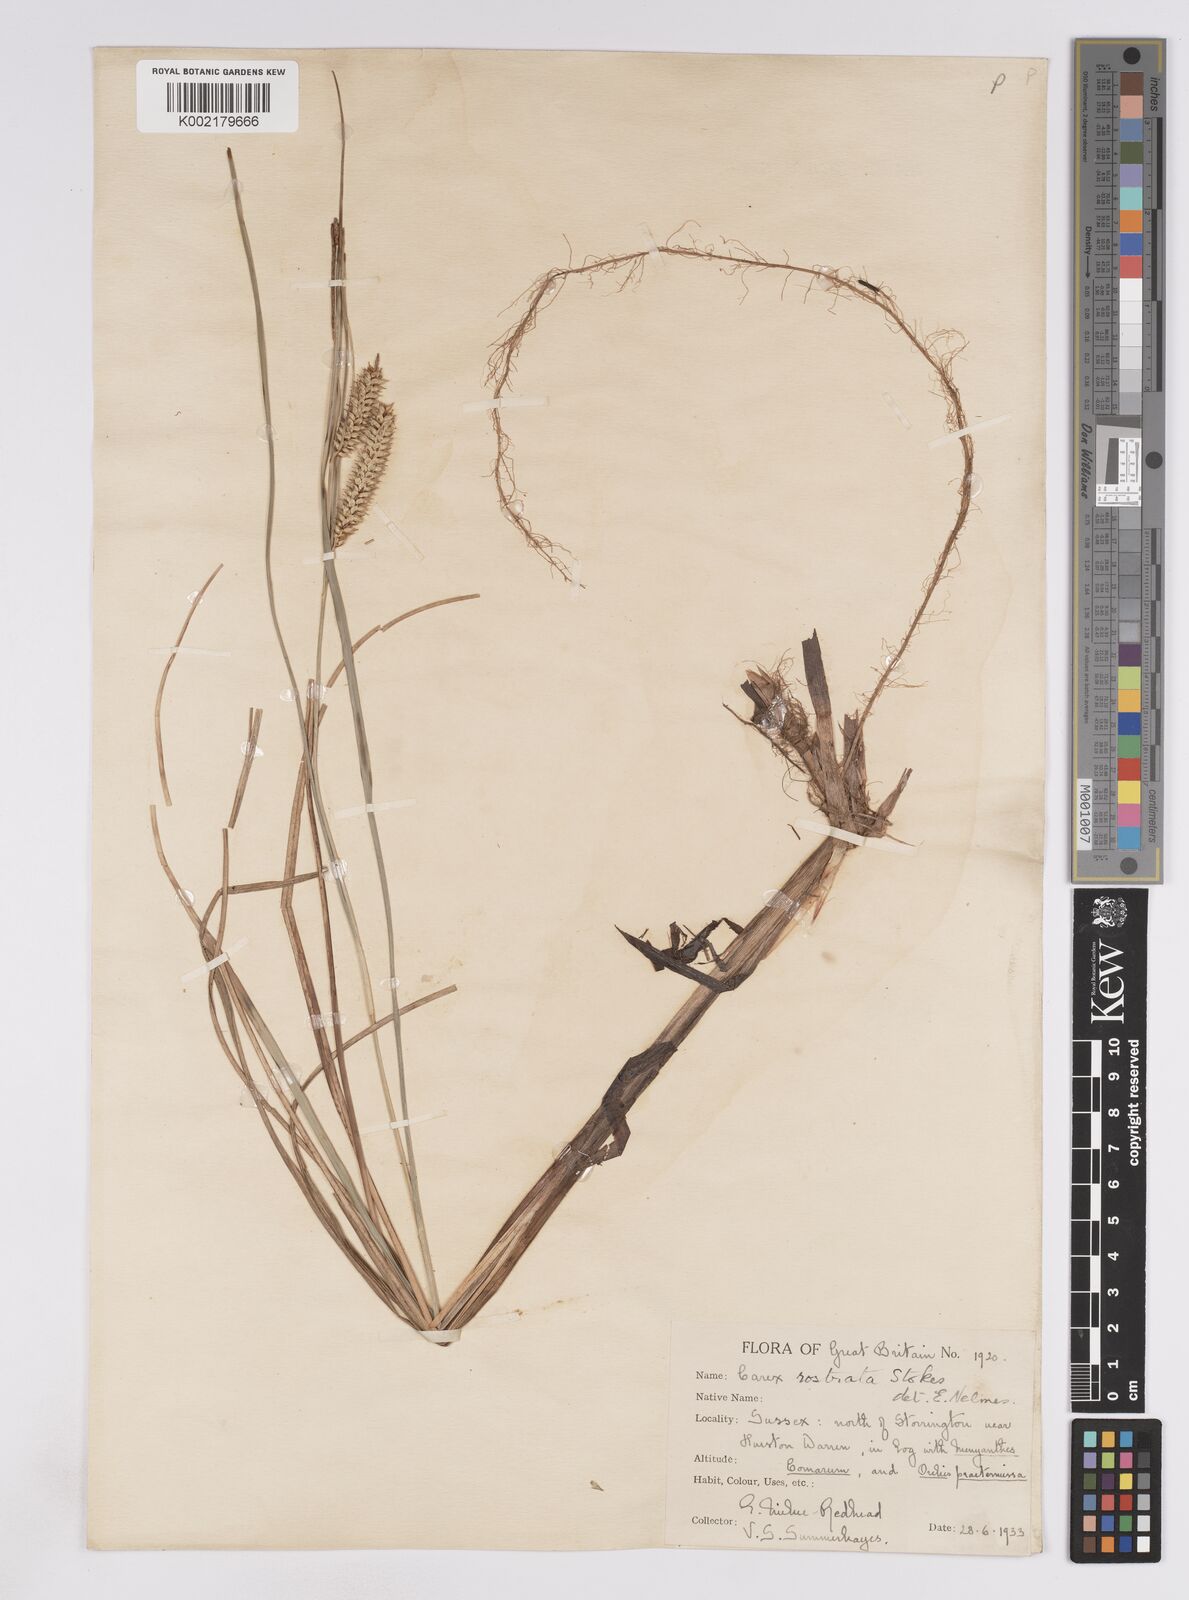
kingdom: Plantae
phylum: Tracheophyta
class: Liliopsida
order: Poales
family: Cyperaceae
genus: Carex
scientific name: Carex rostrata
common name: Bottle sedge
